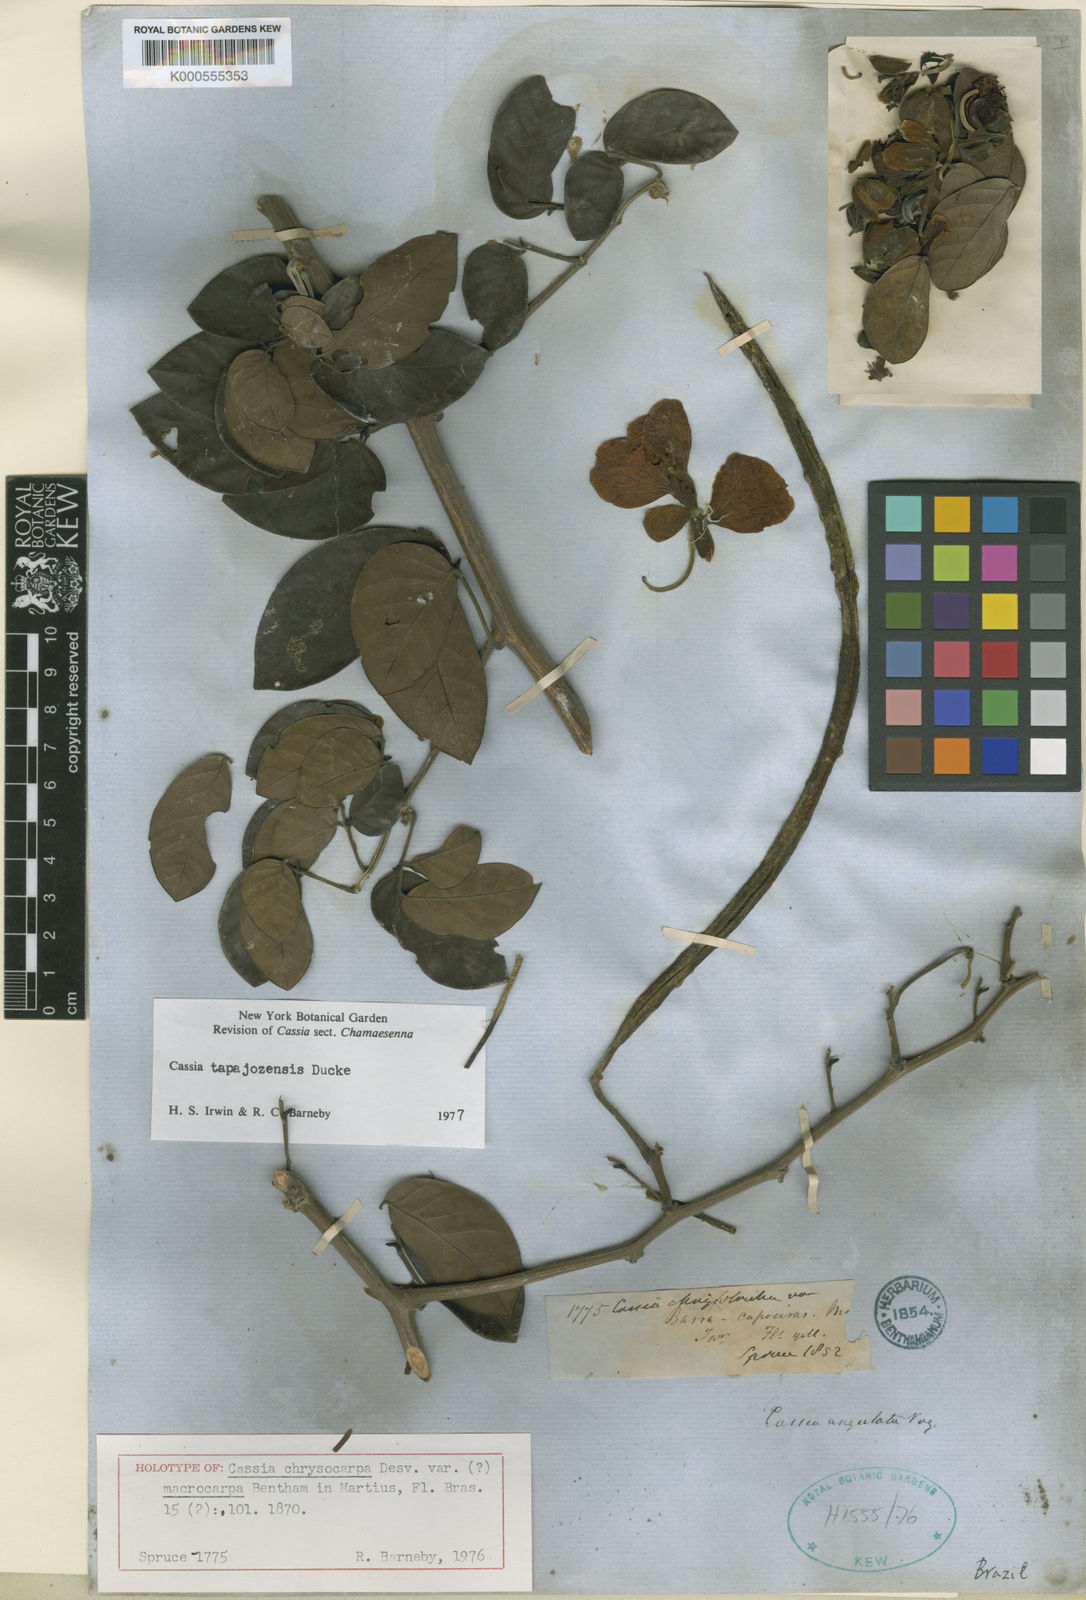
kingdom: Plantae
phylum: Tracheophyta
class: Magnoliopsida
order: Fabales
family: Fabaceae
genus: Senna
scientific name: Senna tapajozensis
